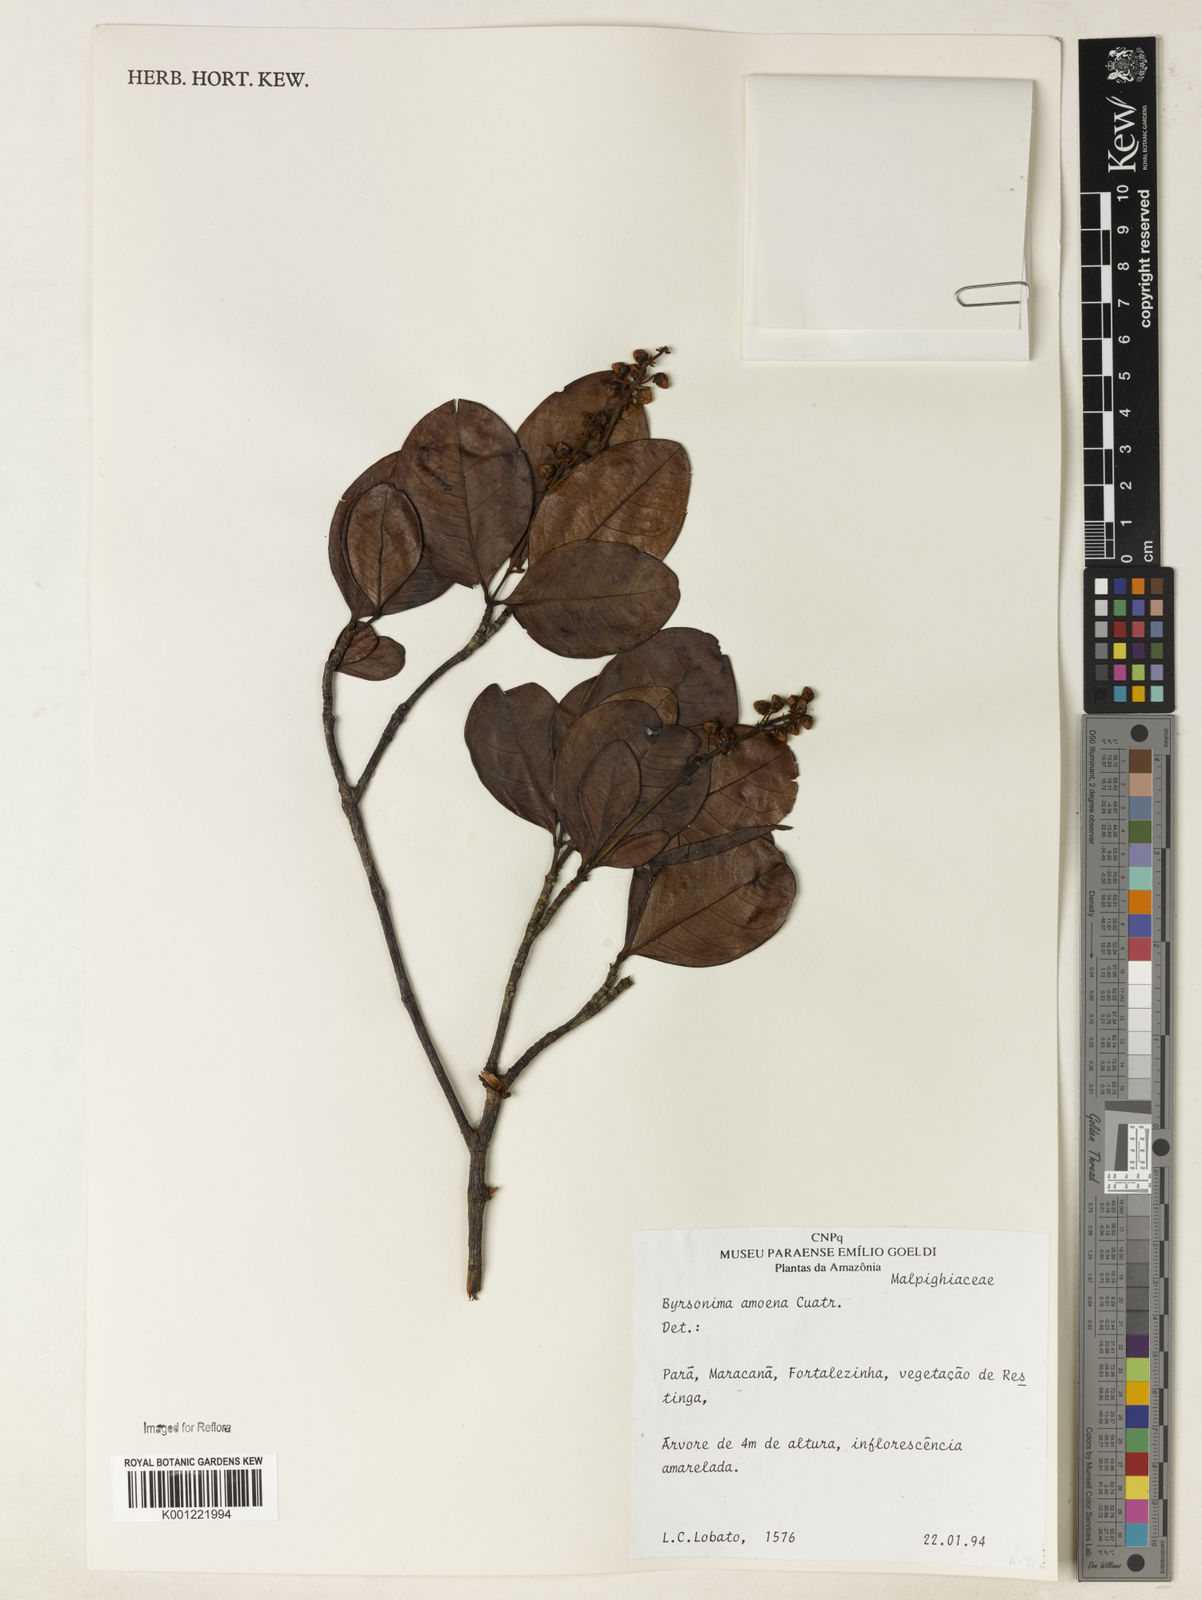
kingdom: Plantae
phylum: Tracheophyta
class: Magnoliopsida
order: Malpighiales
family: Malpighiaceae
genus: Byrsonima
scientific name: Byrsonima amoena
